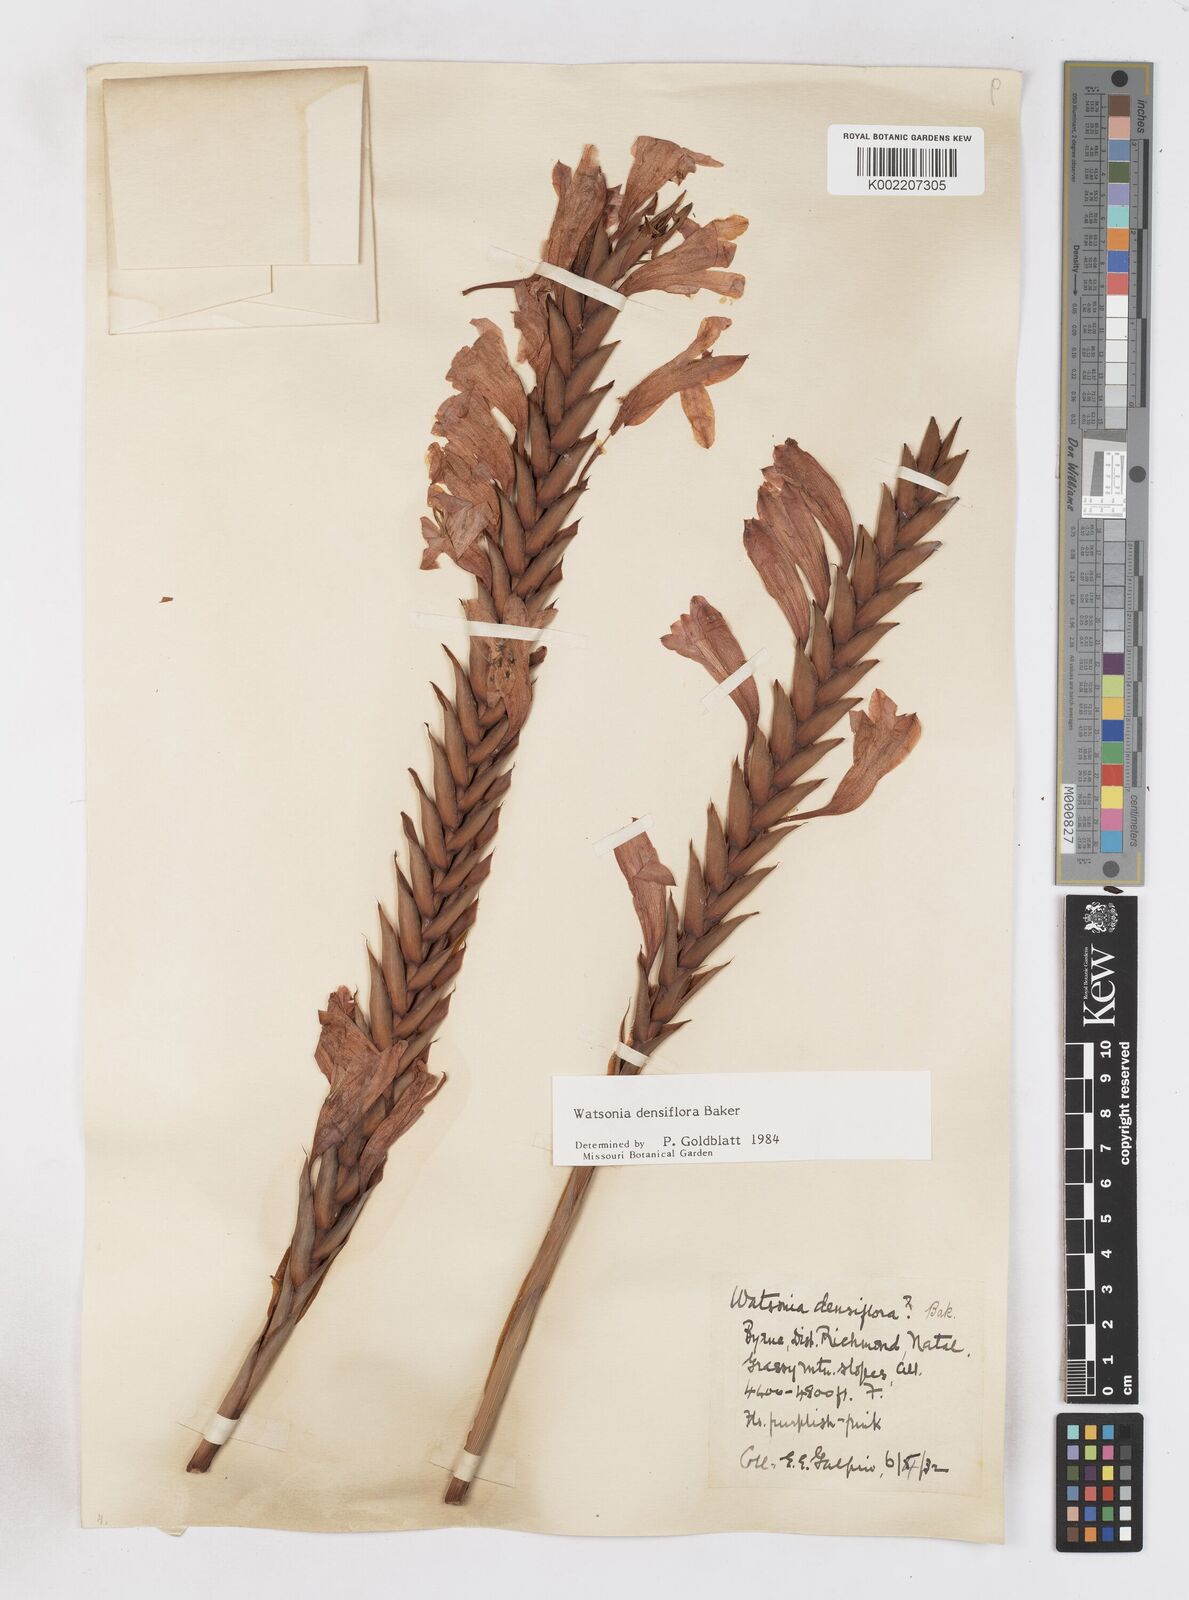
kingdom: Plantae
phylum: Tracheophyta
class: Liliopsida
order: Asparagales
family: Iridaceae
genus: Watsonia
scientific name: Watsonia densiflora
